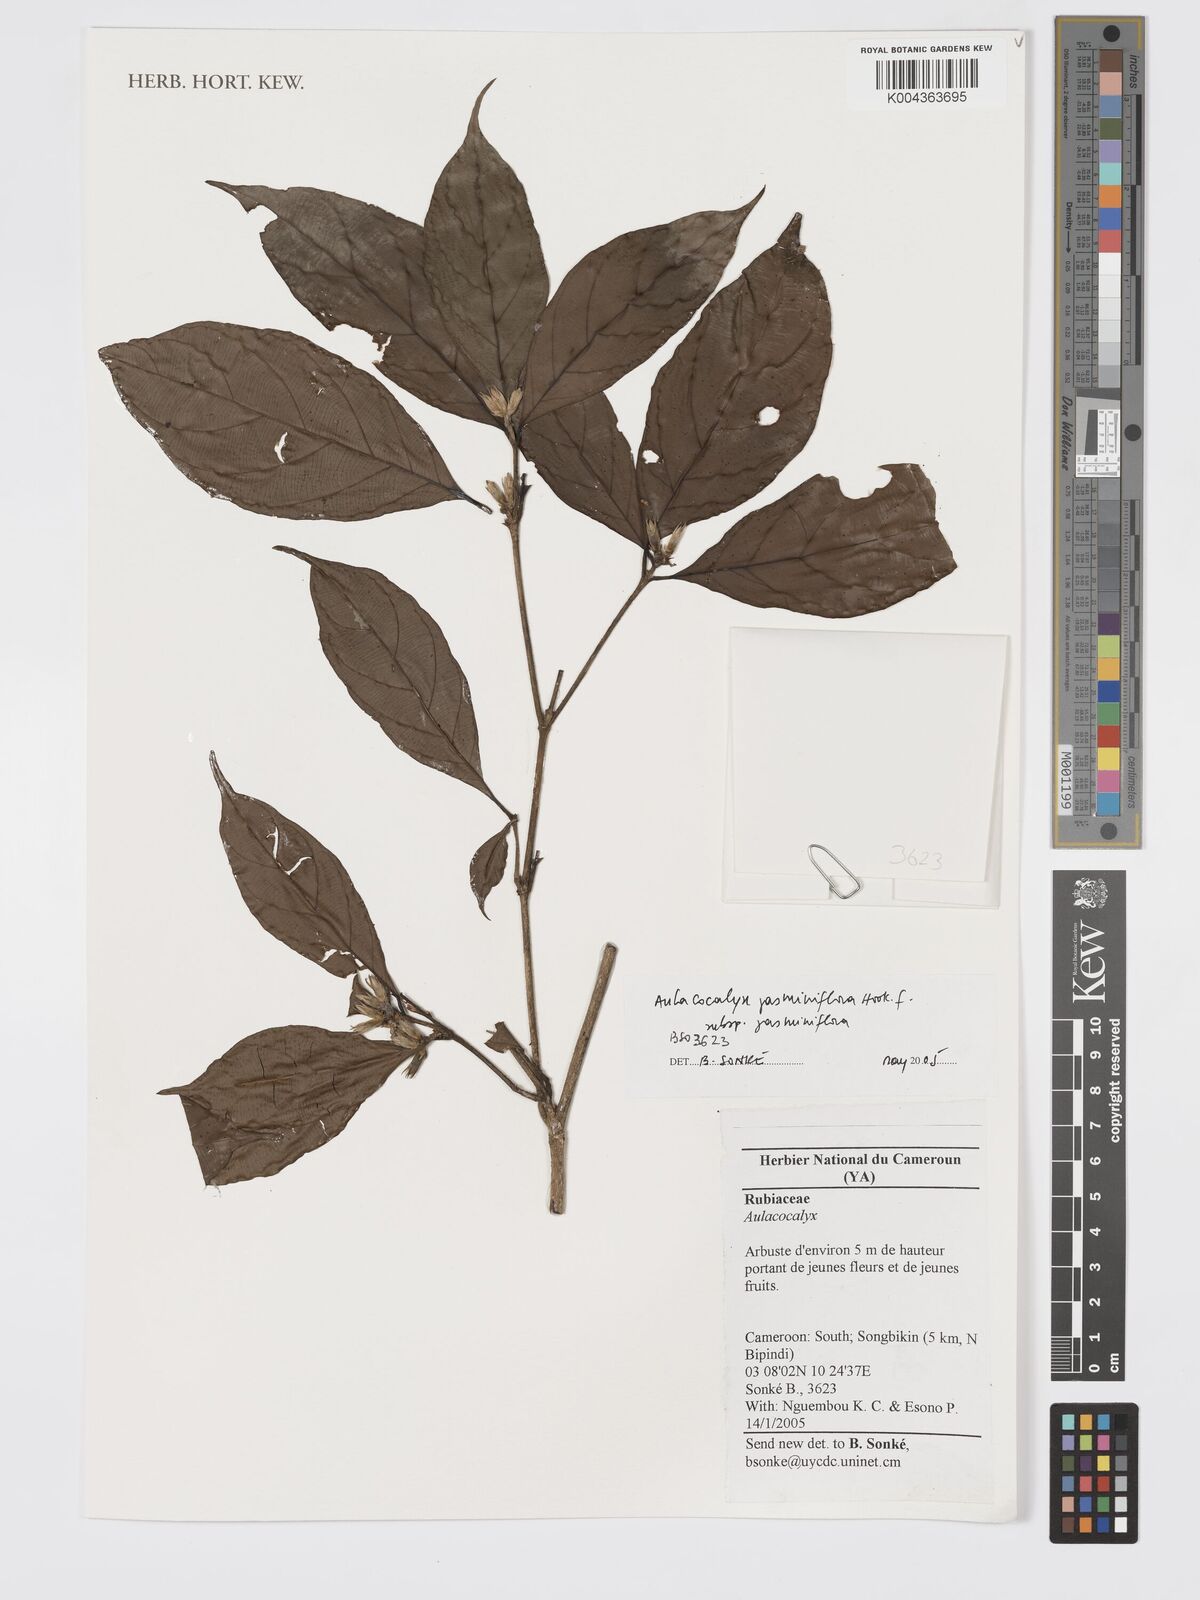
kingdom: Plantae
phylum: Tracheophyta
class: Magnoliopsida
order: Gentianales
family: Rubiaceae
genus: Aulacocalyx
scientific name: Aulacocalyx jasminiflora
